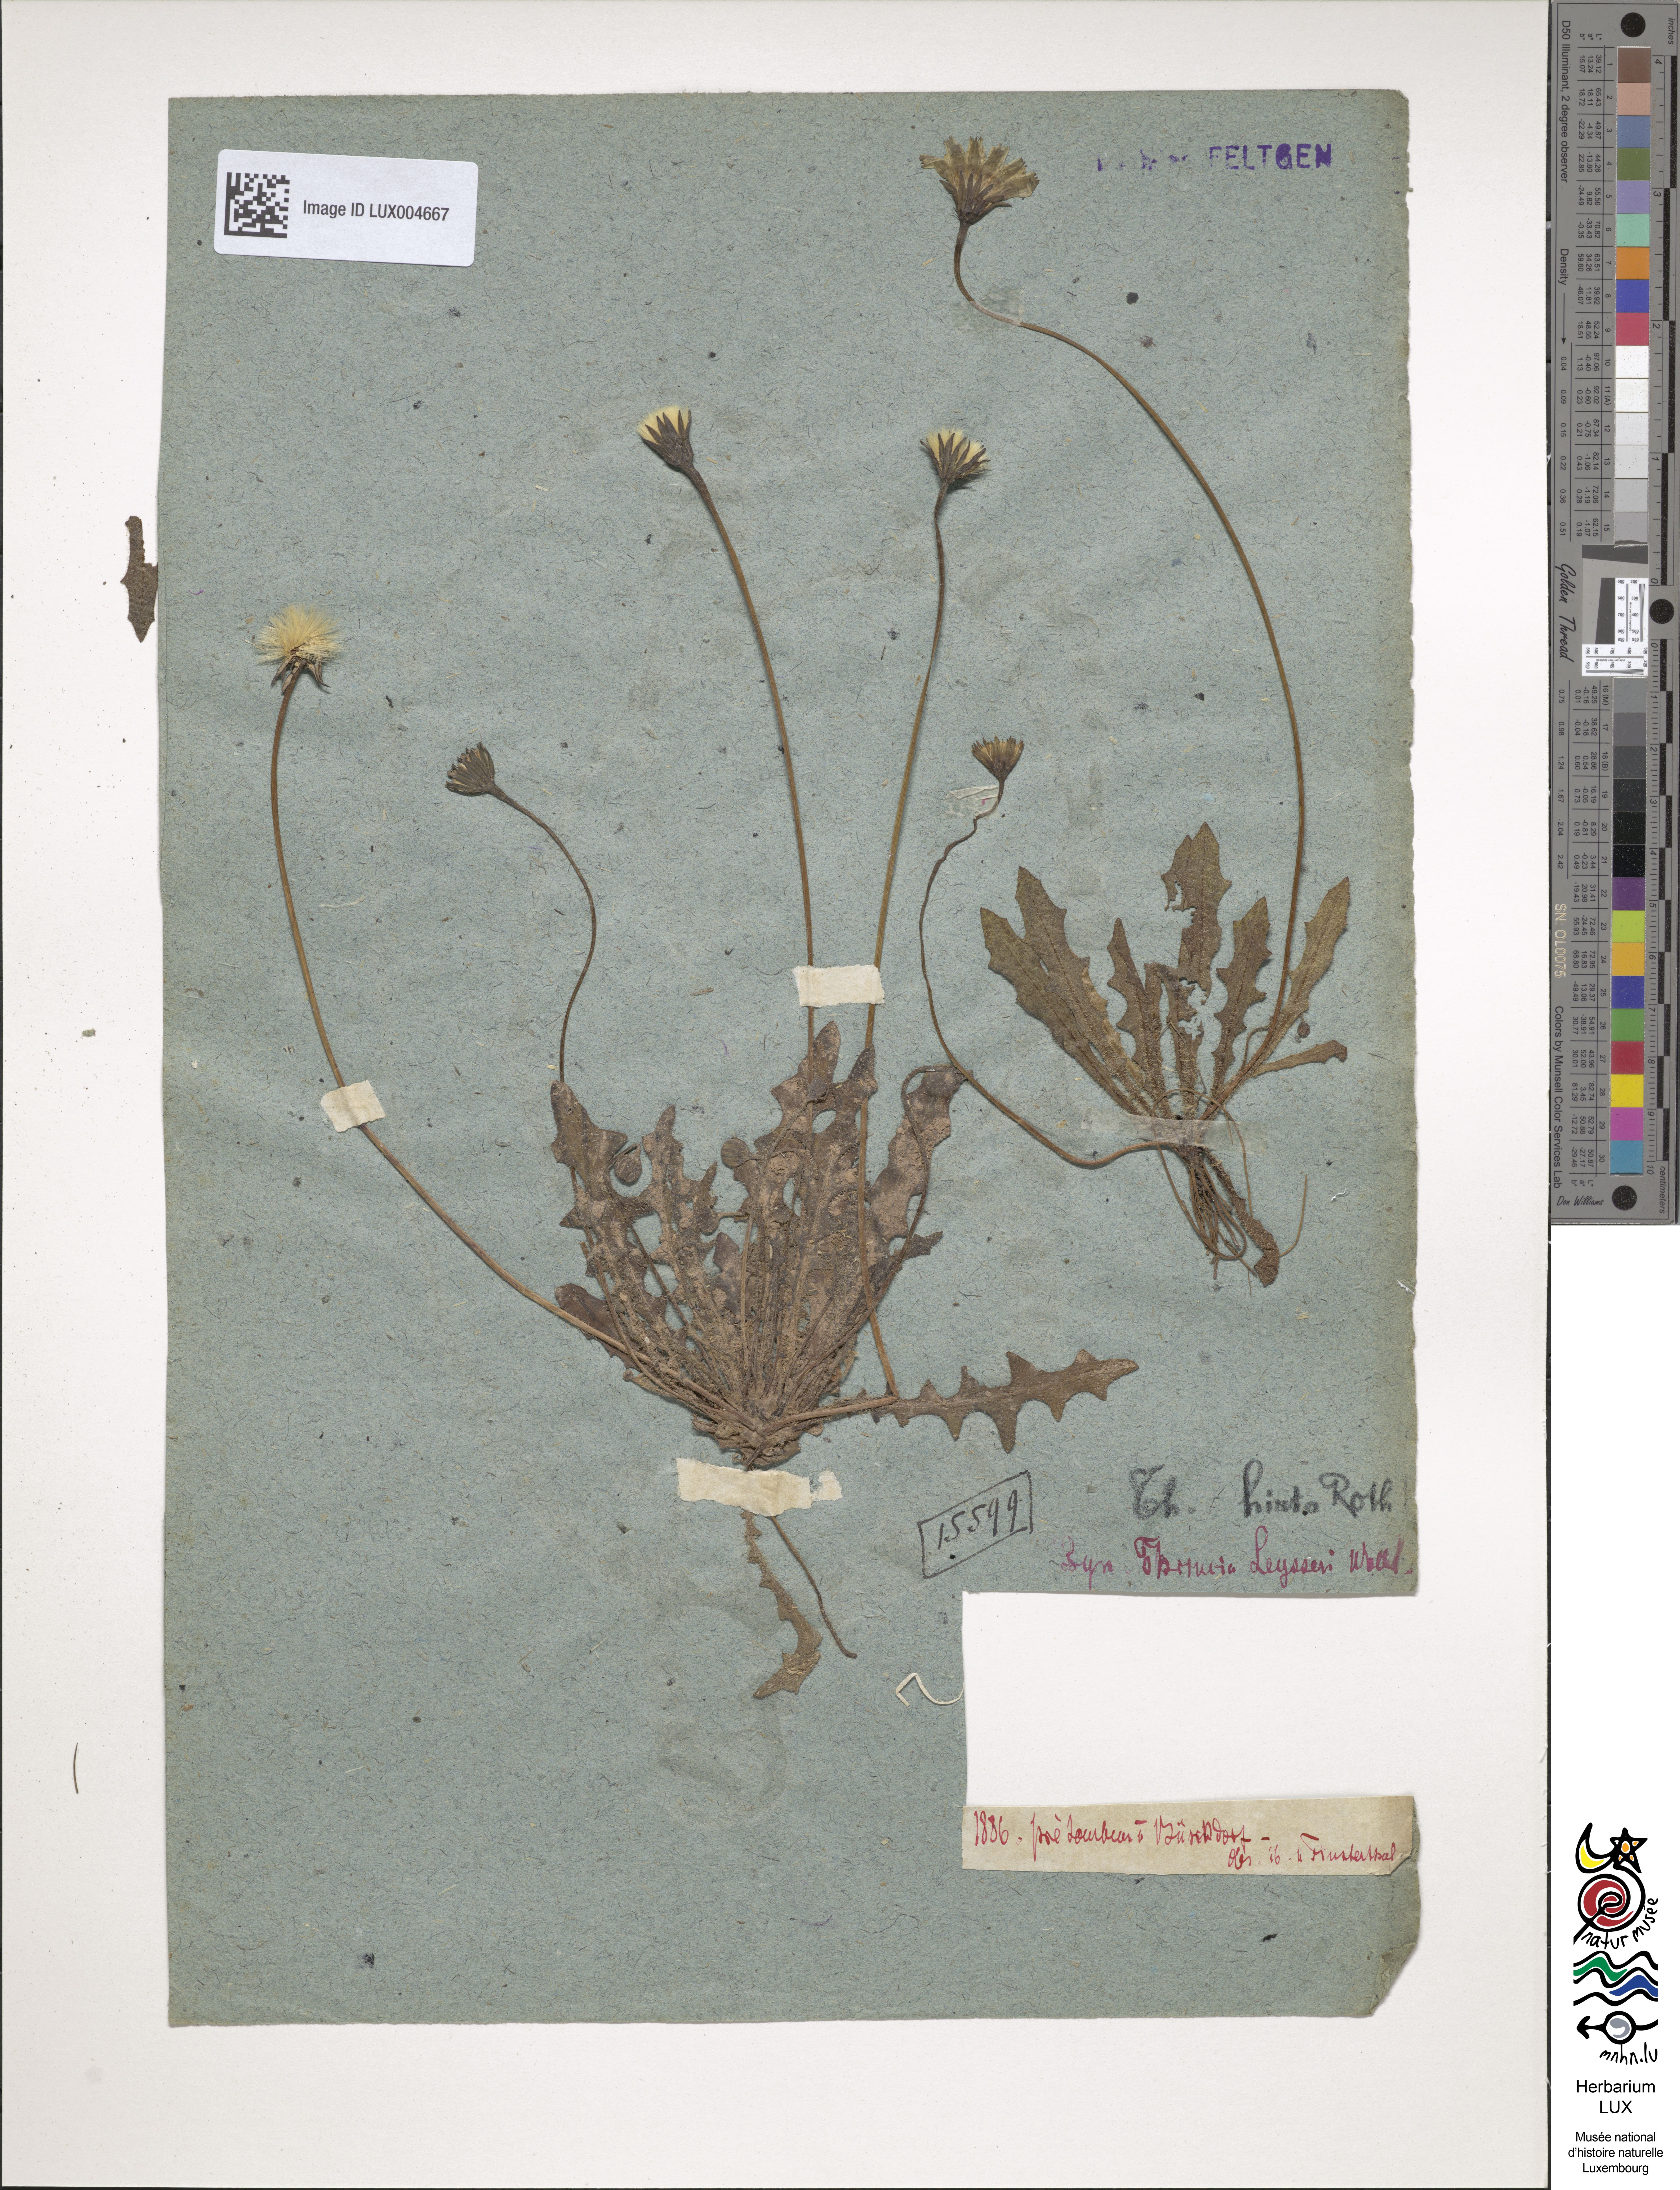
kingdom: Plantae
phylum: Tracheophyta
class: Magnoliopsida
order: Asterales
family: Asteraceae
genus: Thrincia
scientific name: Thrincia saxatilis
